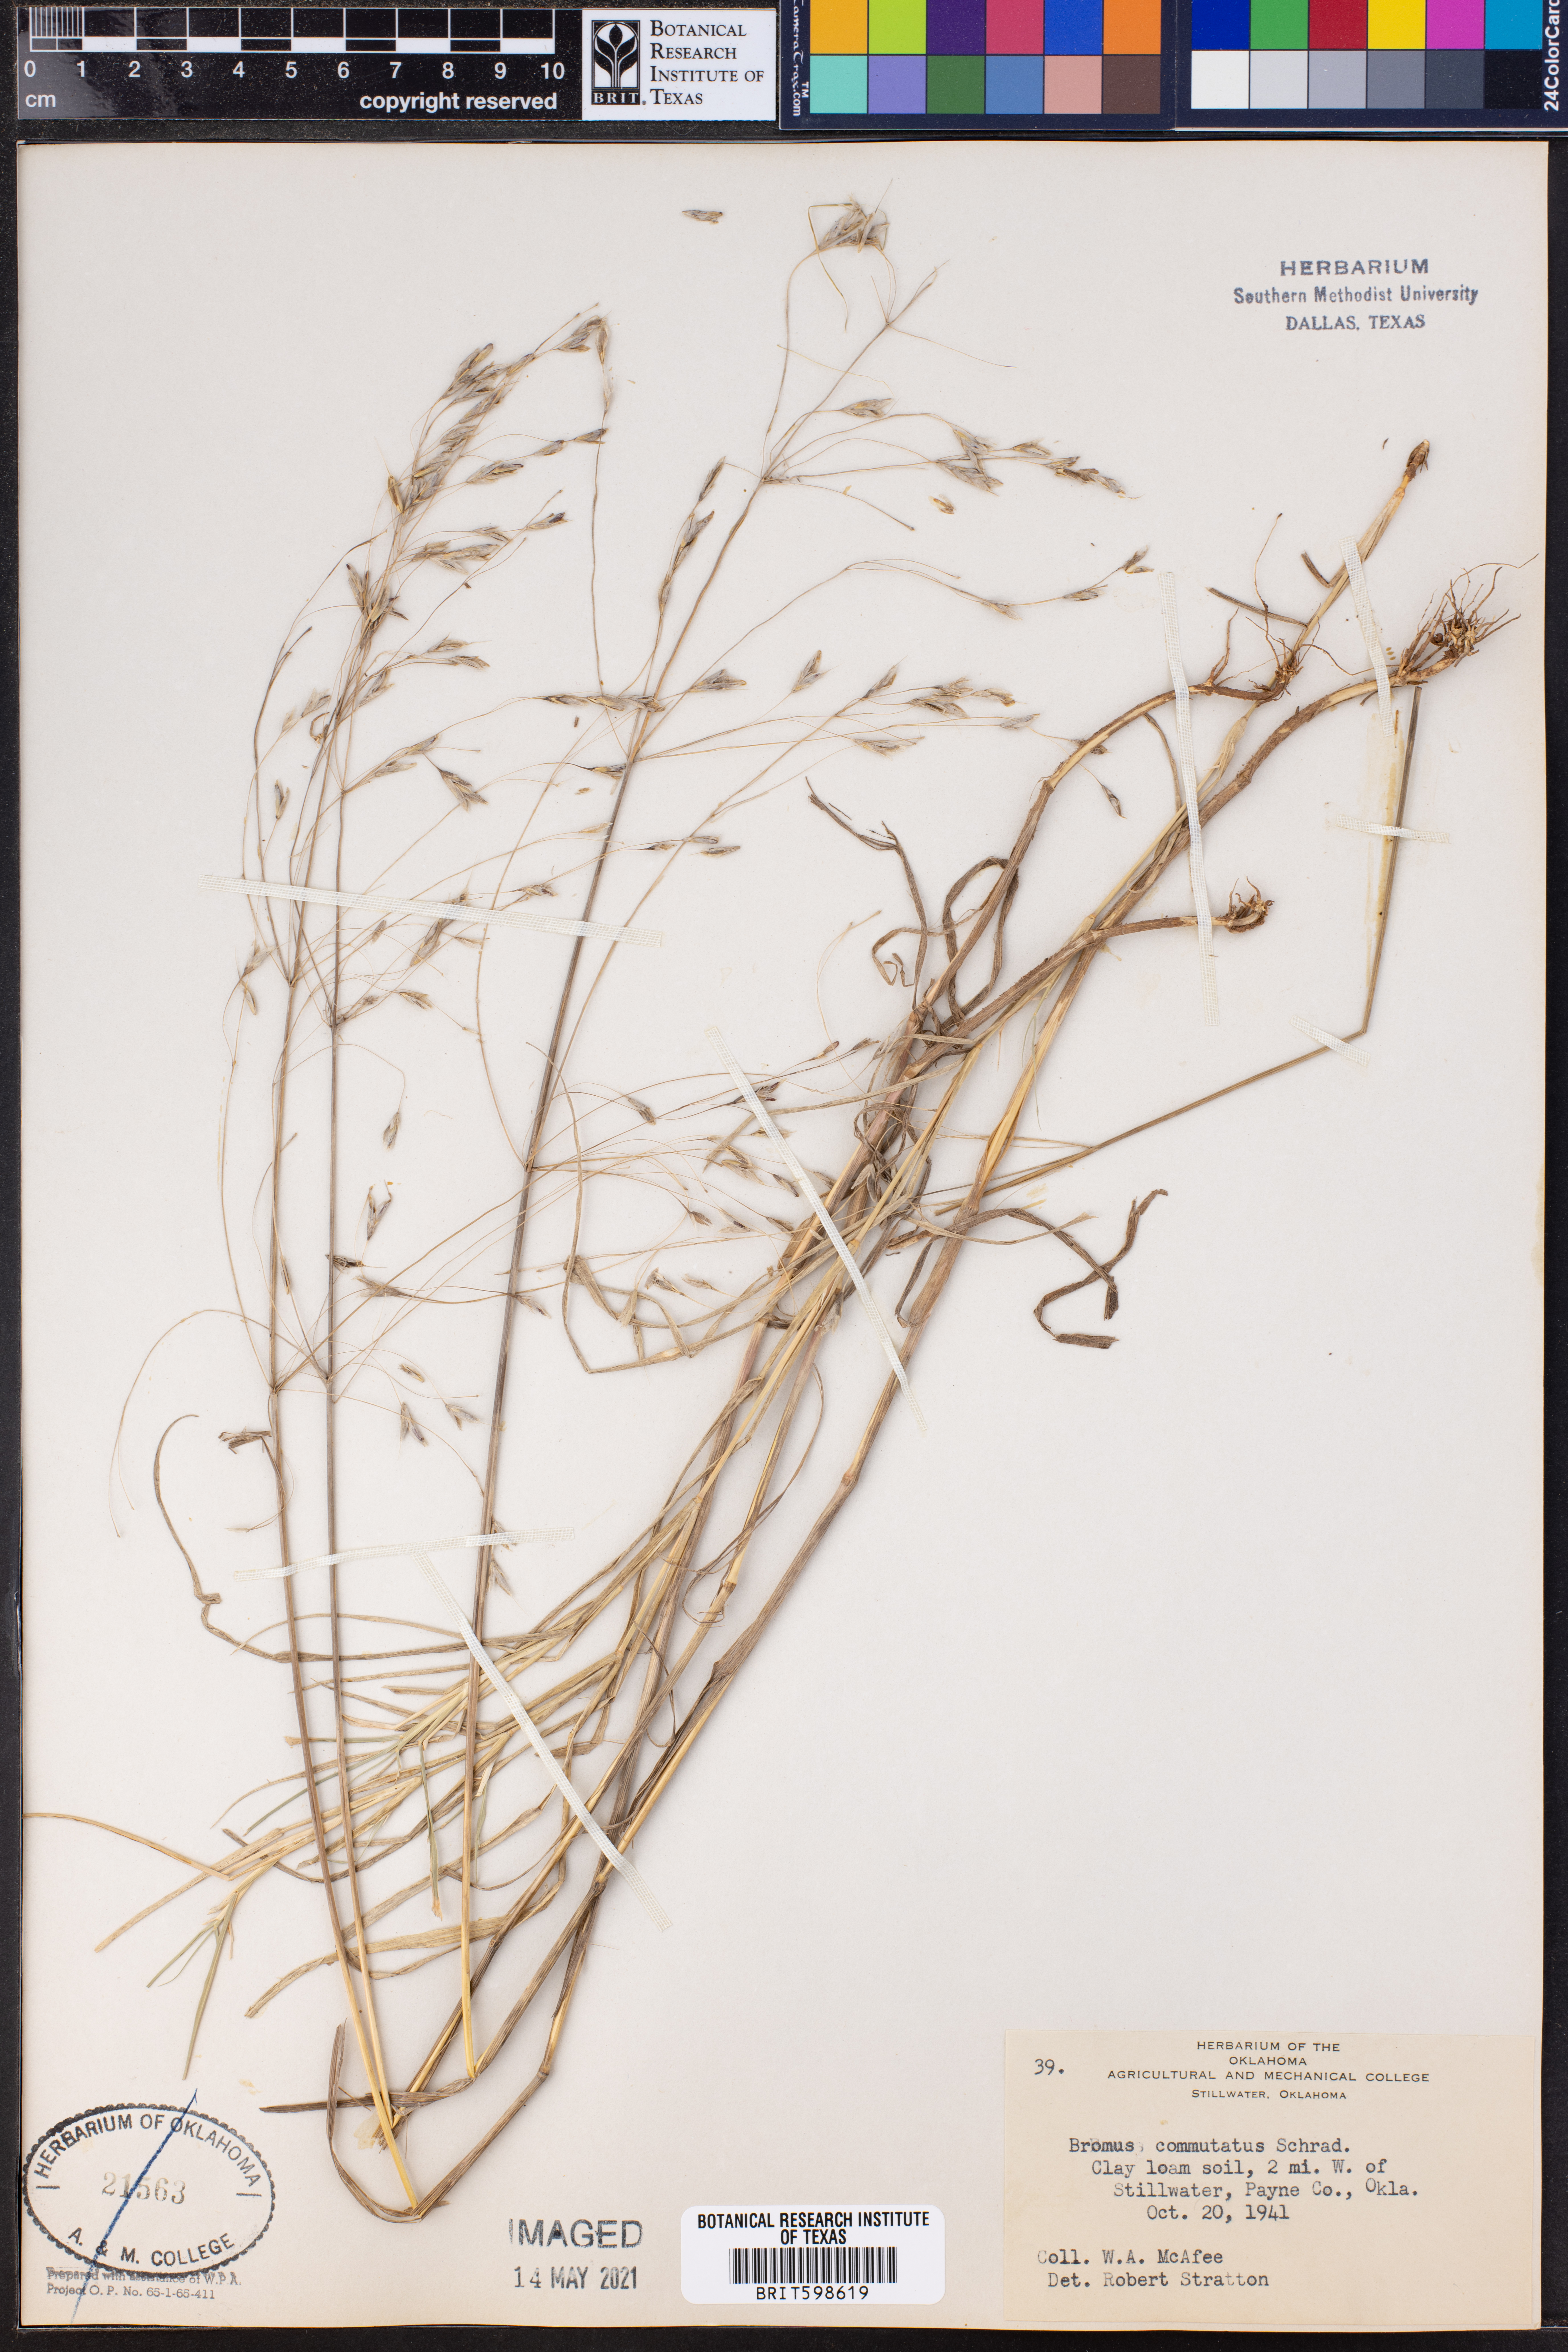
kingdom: Plantae
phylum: Tracheophyta
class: Liliopsida
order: Poales
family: Poaceae
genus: Bromus
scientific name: Bromus commutatus
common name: Meadow brome
